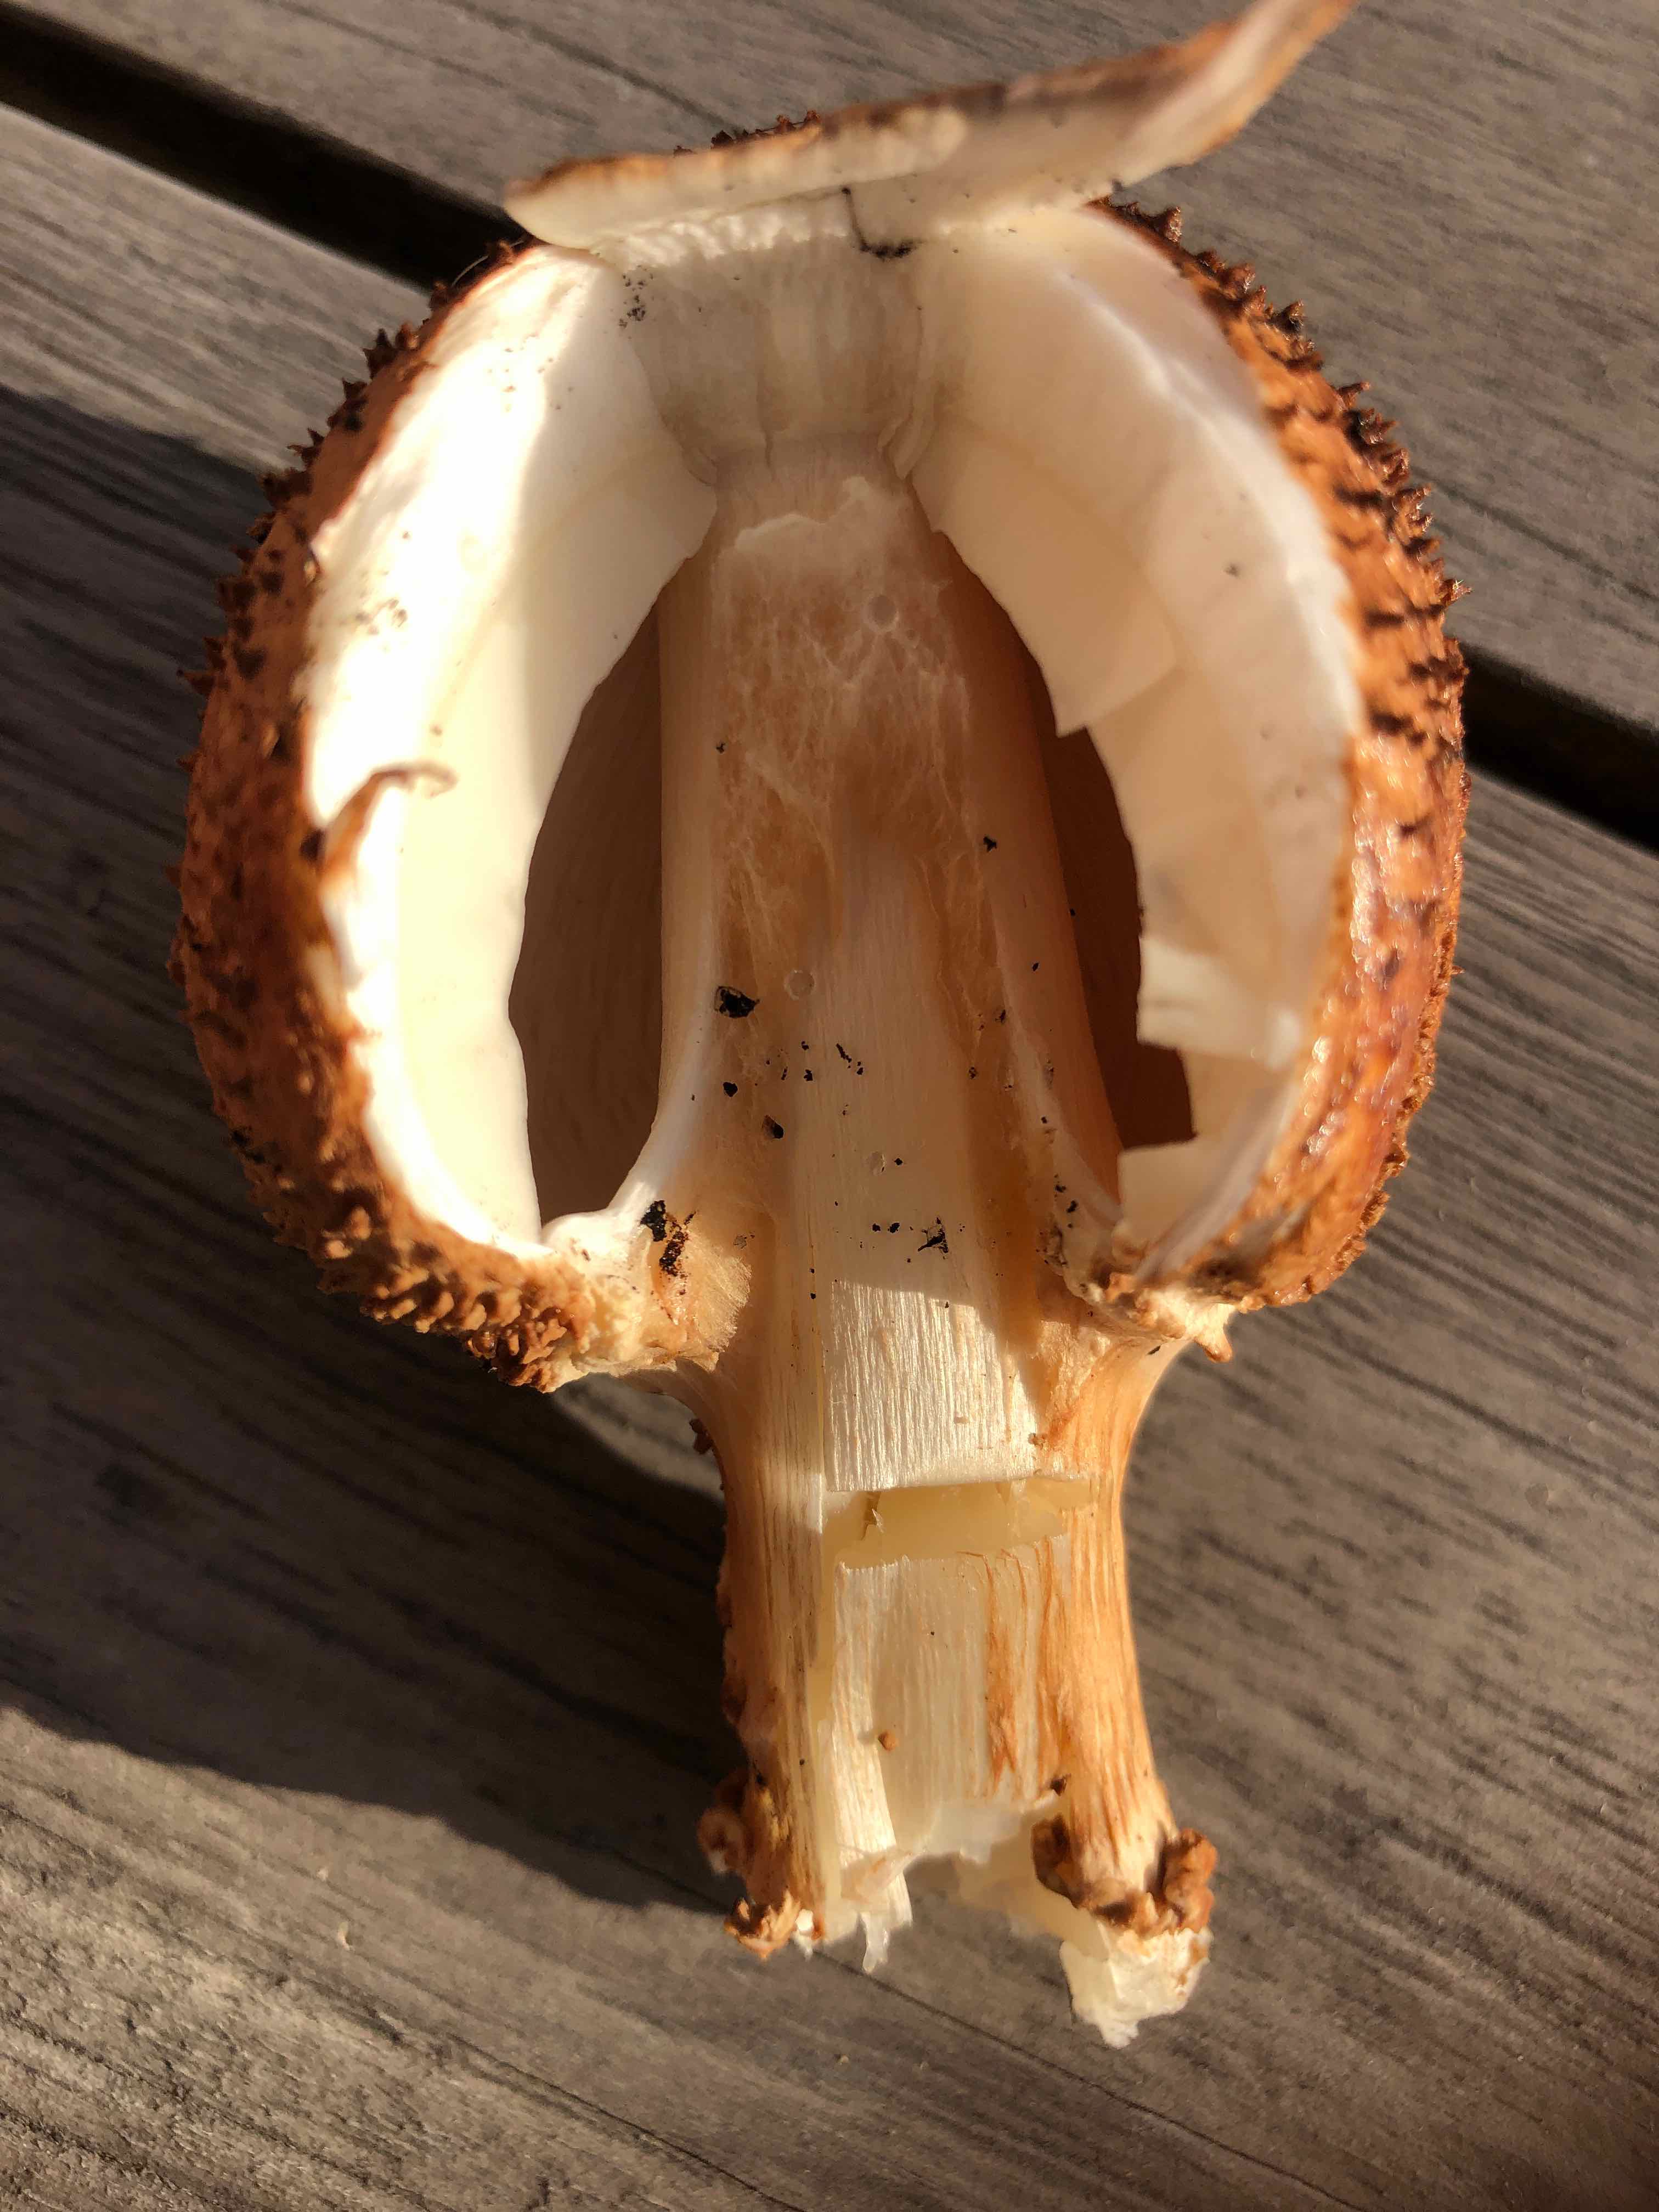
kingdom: Fungi
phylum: Basidiomycota
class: Agaricomycetes
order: Agaricales
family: Agaricaceae
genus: Echinoderma
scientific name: Echinoderma asperum
